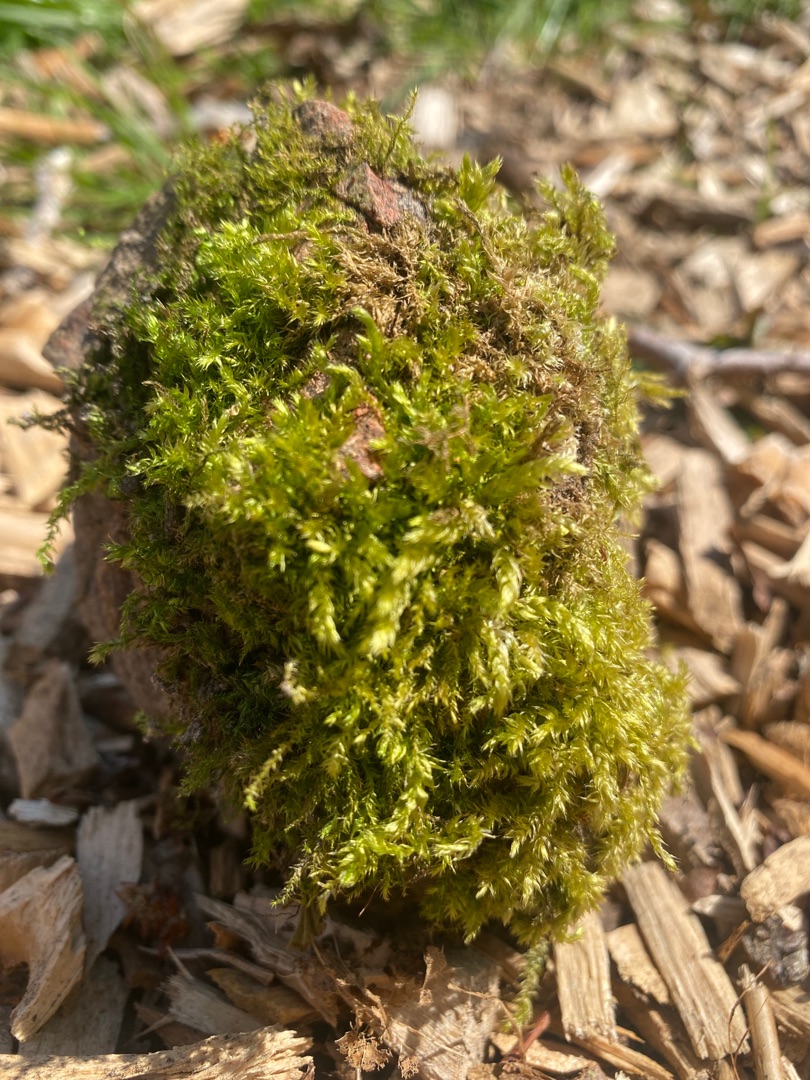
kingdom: Plantae
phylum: Bryophyta
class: Bryopsida
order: Hypnales
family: Brachytheciaceae
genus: Brachythecium
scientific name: Brachythecium rutabulum
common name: Almindelig kortkapsel
